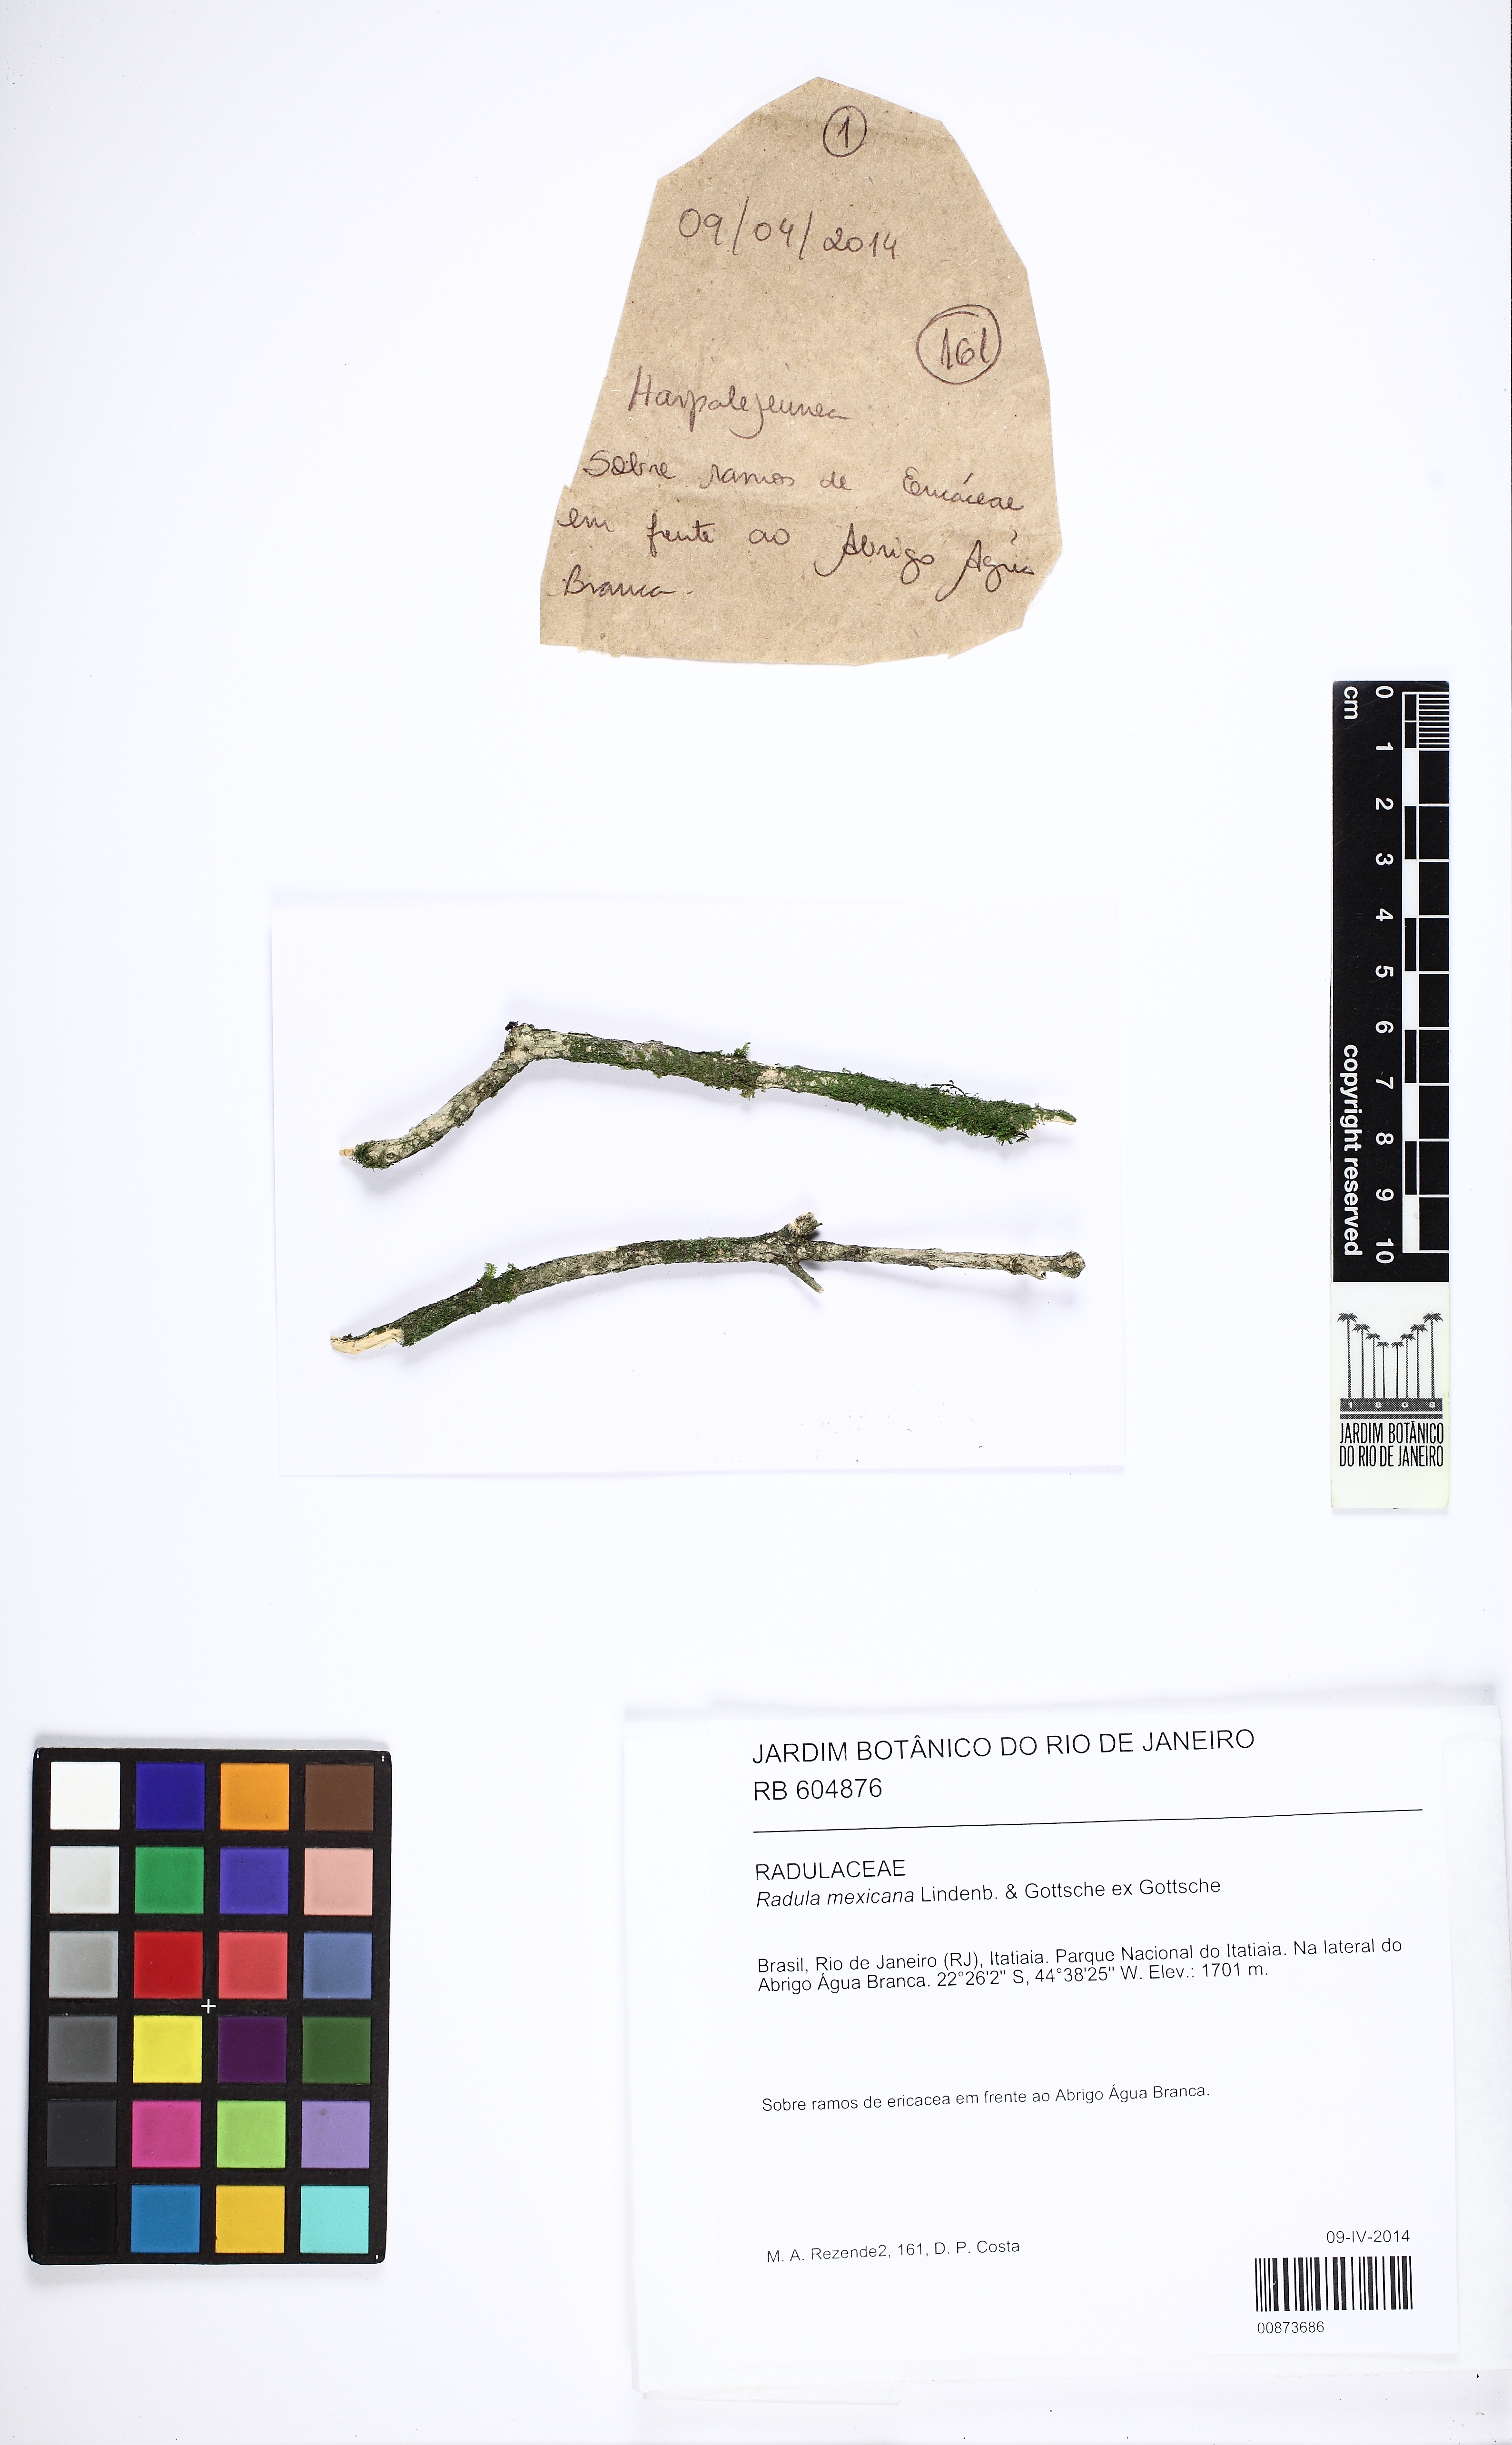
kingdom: Plantae
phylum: Marchantiophyta
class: Jungermanniopsida
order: Porellales
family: Radulaceae
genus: Radula
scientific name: Radula mexicana
